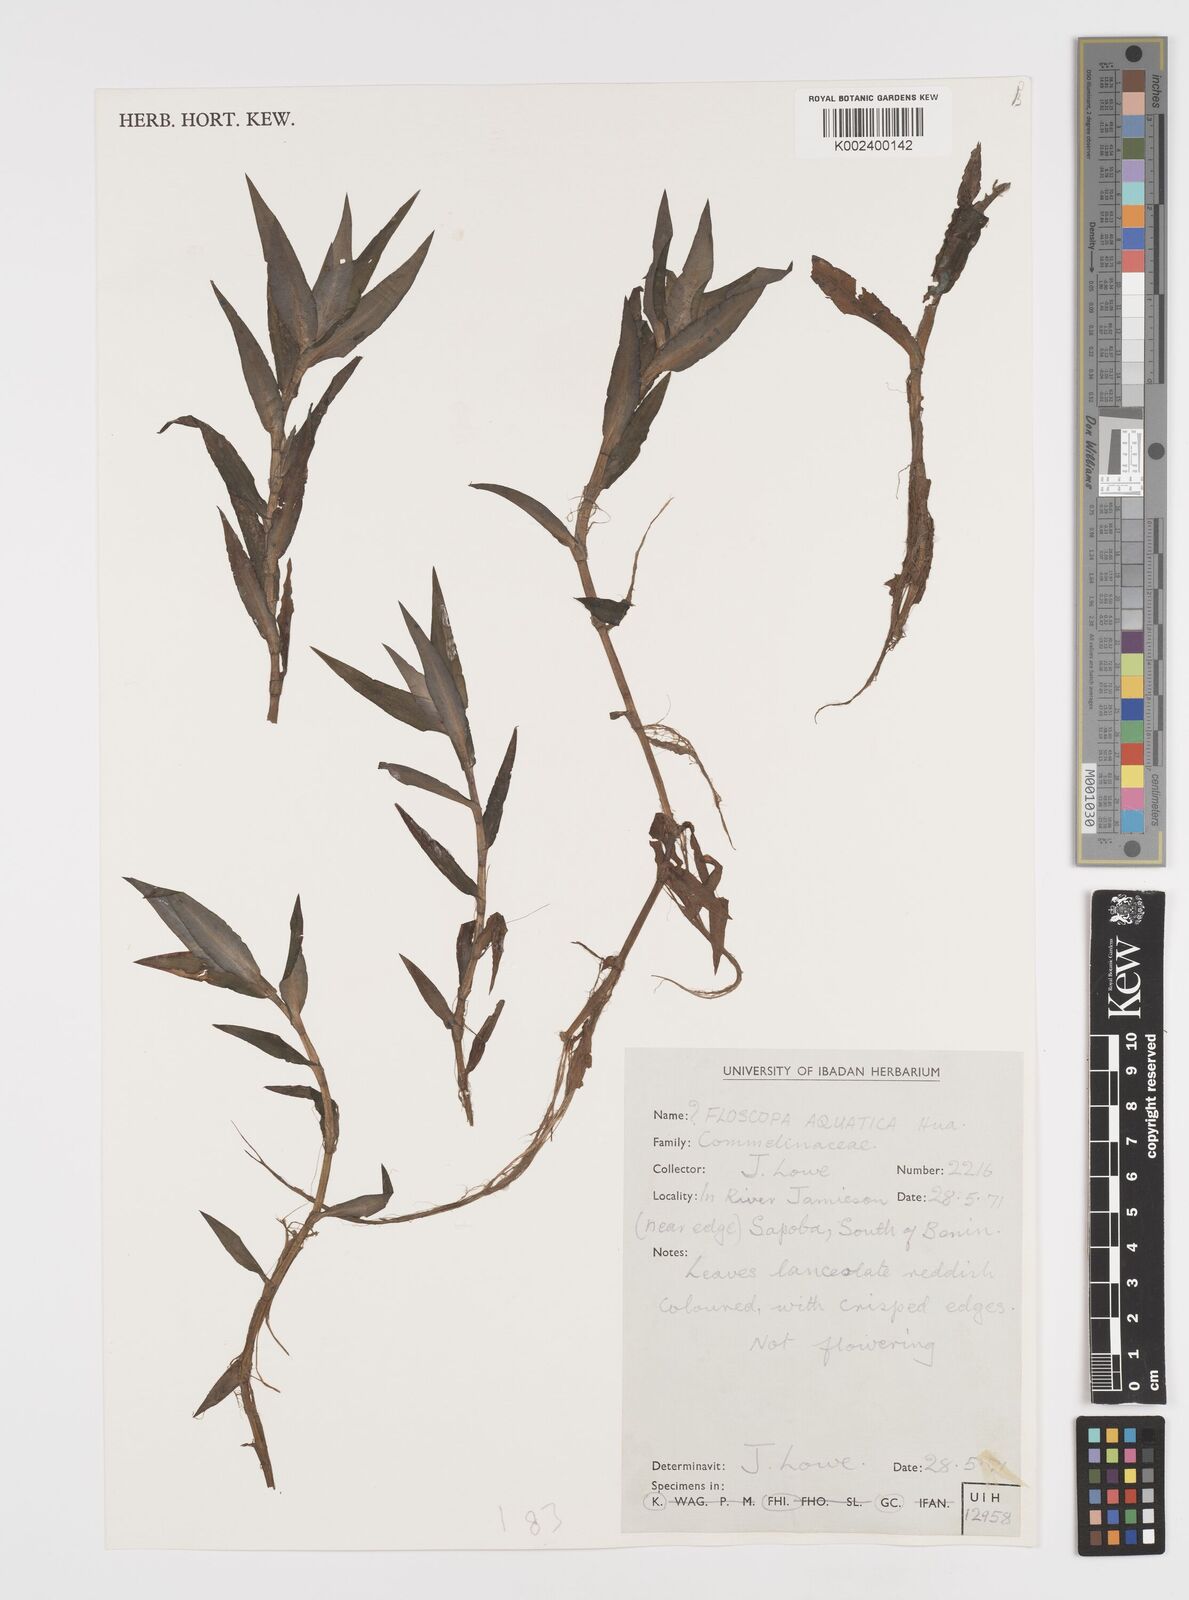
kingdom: Plantae
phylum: Tracheophyta
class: Liliopsida
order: Commelinales
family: Commelinaceae
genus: Floscopa
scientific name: Floscopa aquatica
